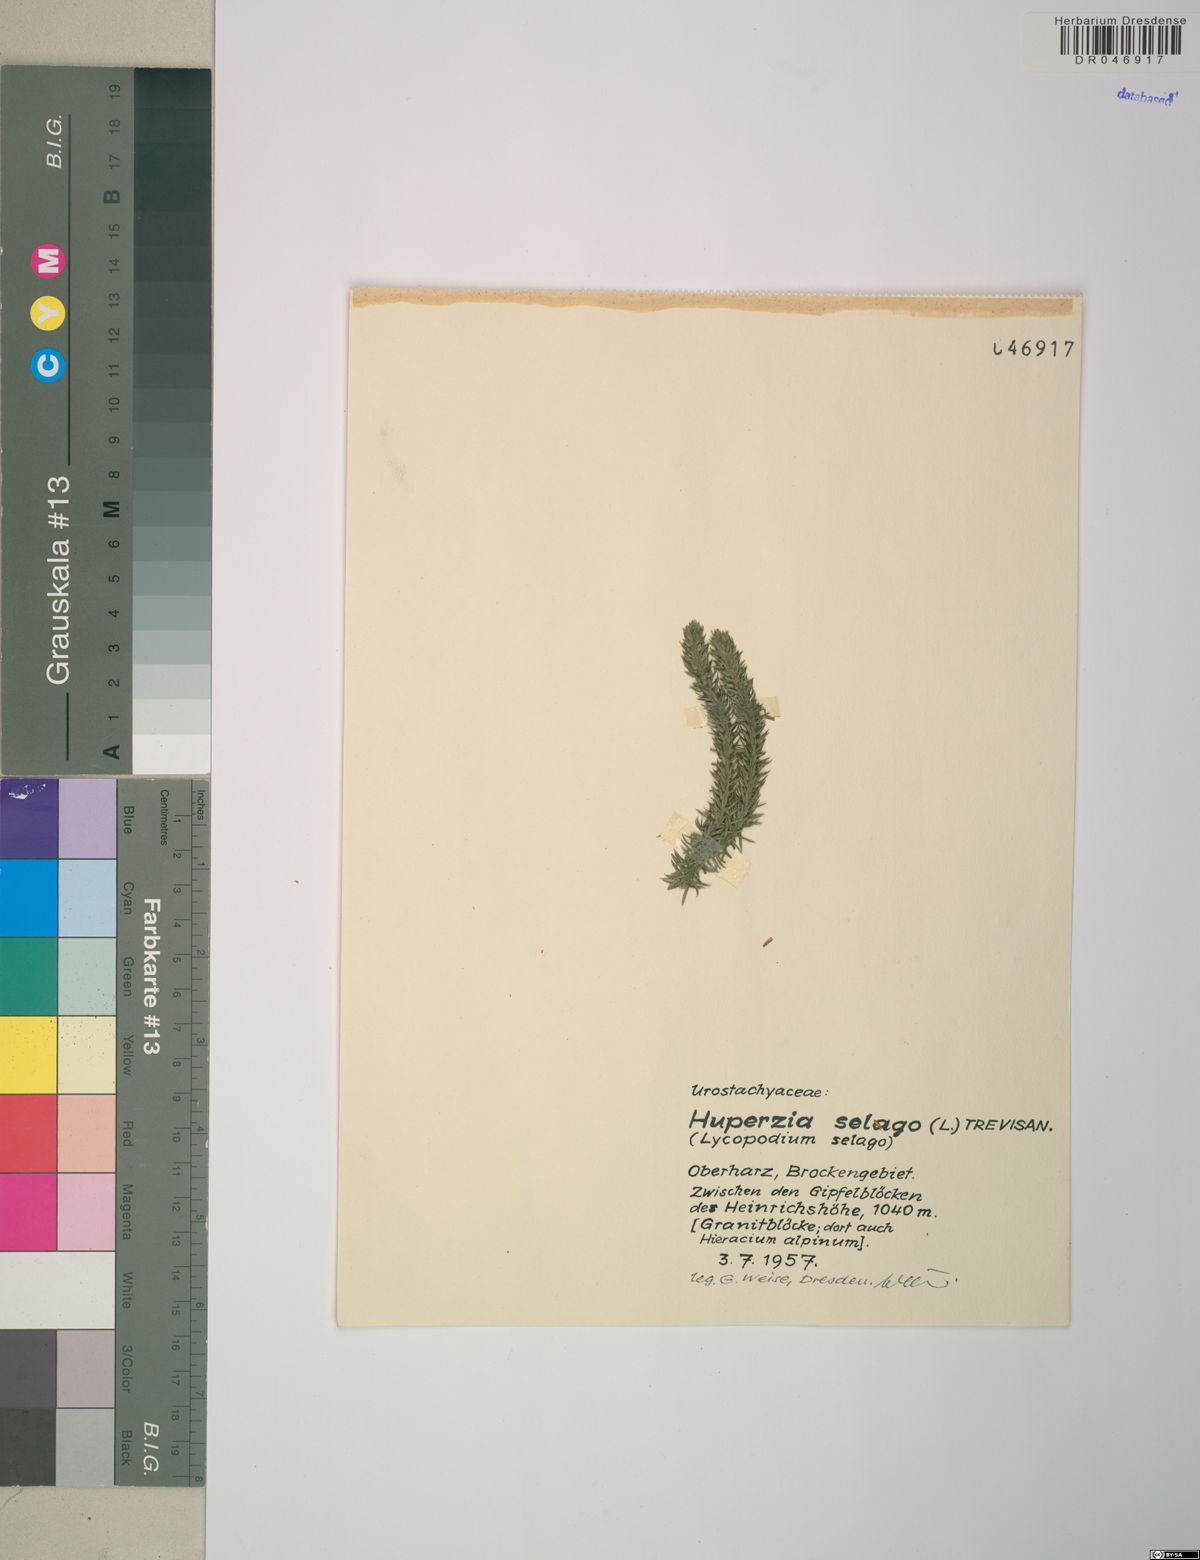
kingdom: Plantae
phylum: Tracheophyta
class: Lycopodiopsida
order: Lycopodiales
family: Lycopodiaceae
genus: Huperzia
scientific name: Huperzia selago
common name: Northern firmoss
